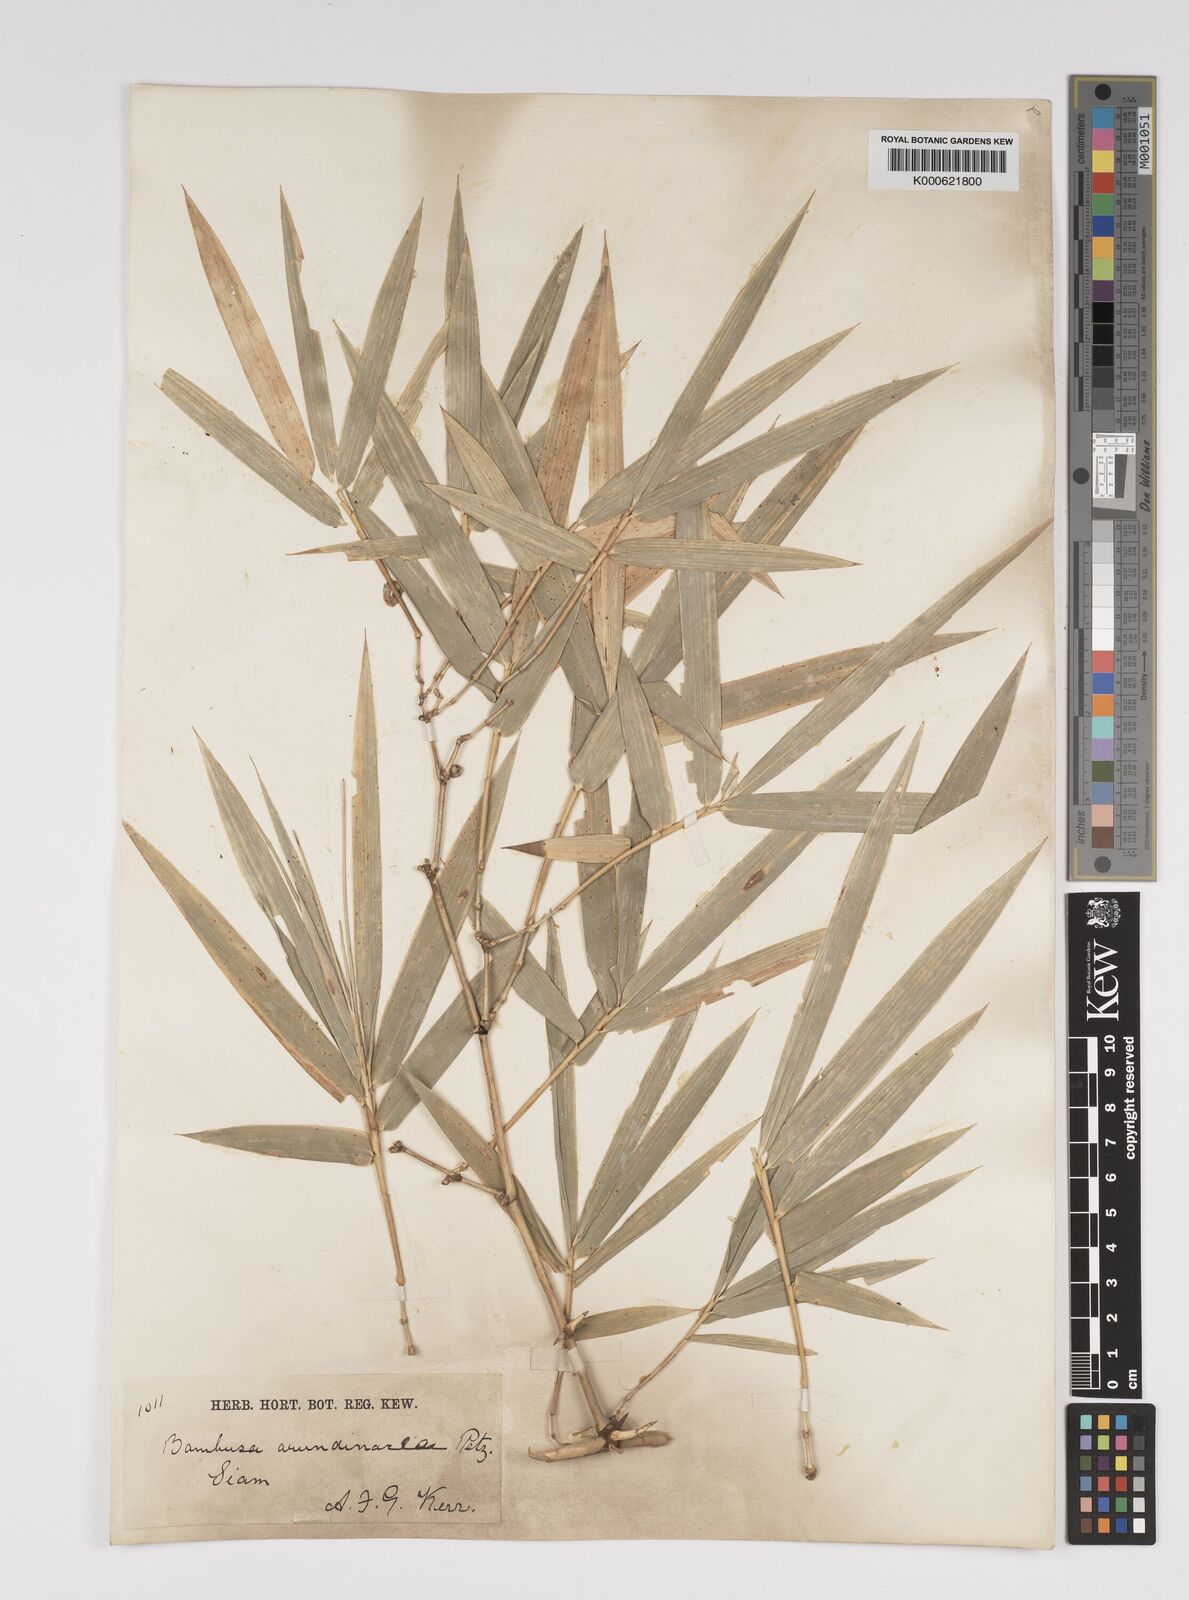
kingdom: Plantae
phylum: Tracheophyta
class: Liliopsida
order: Poales
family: Poaceae
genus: Bambusa
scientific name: Bambusa bambos
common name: Indian thorny bamboo
